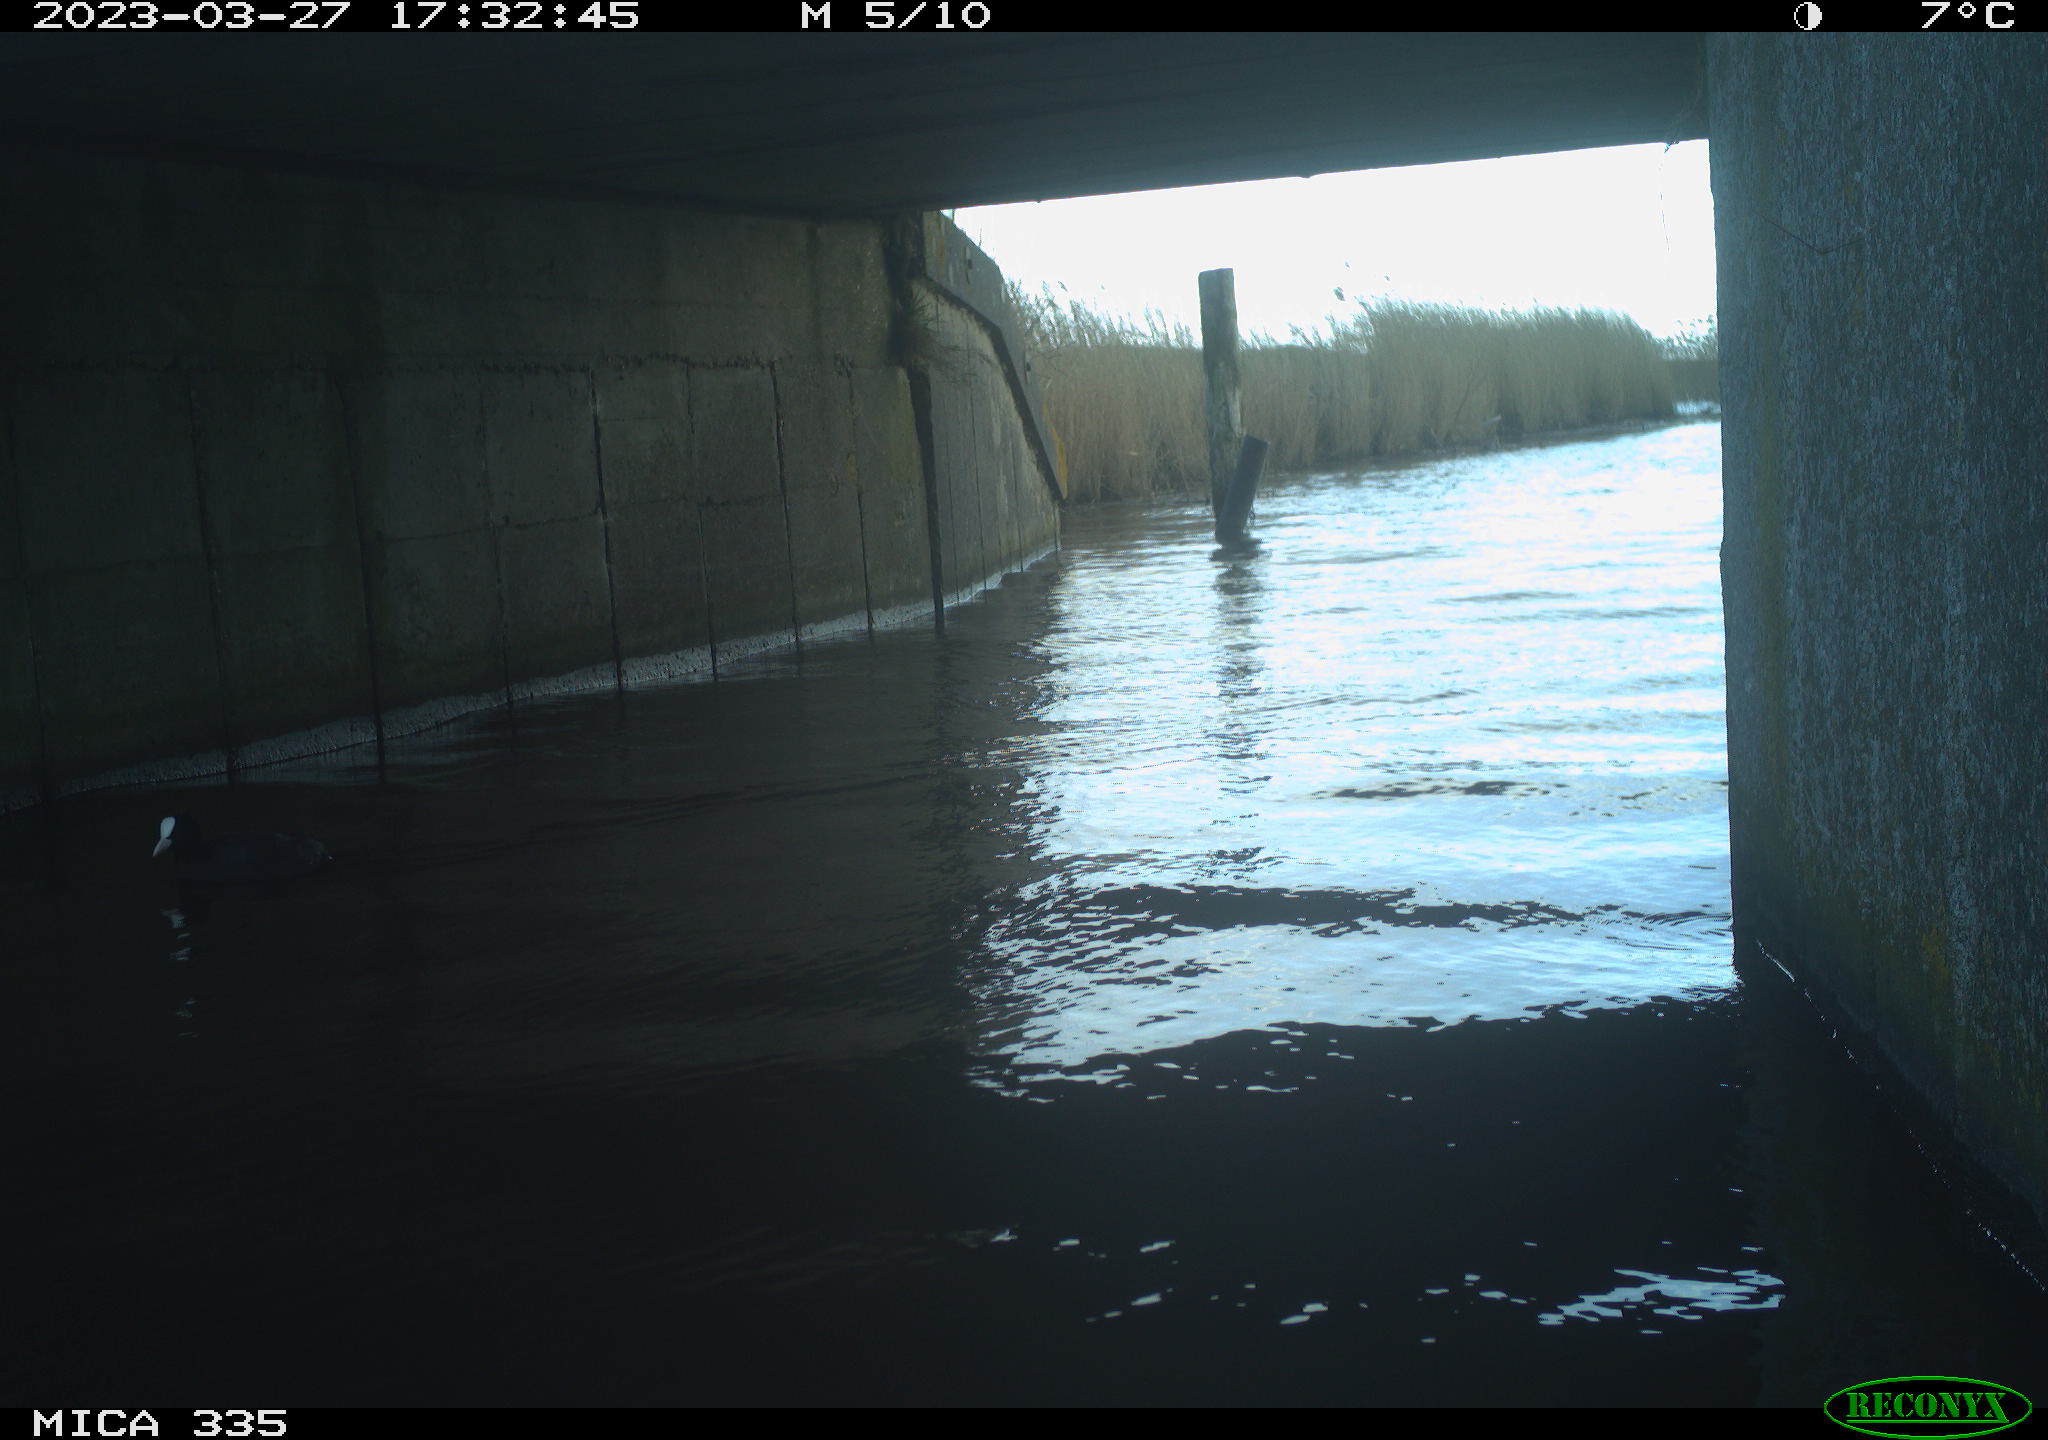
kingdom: Animalia
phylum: Chordata
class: Aves
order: Anseriformes
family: Anatidae
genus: Anas
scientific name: Anas
